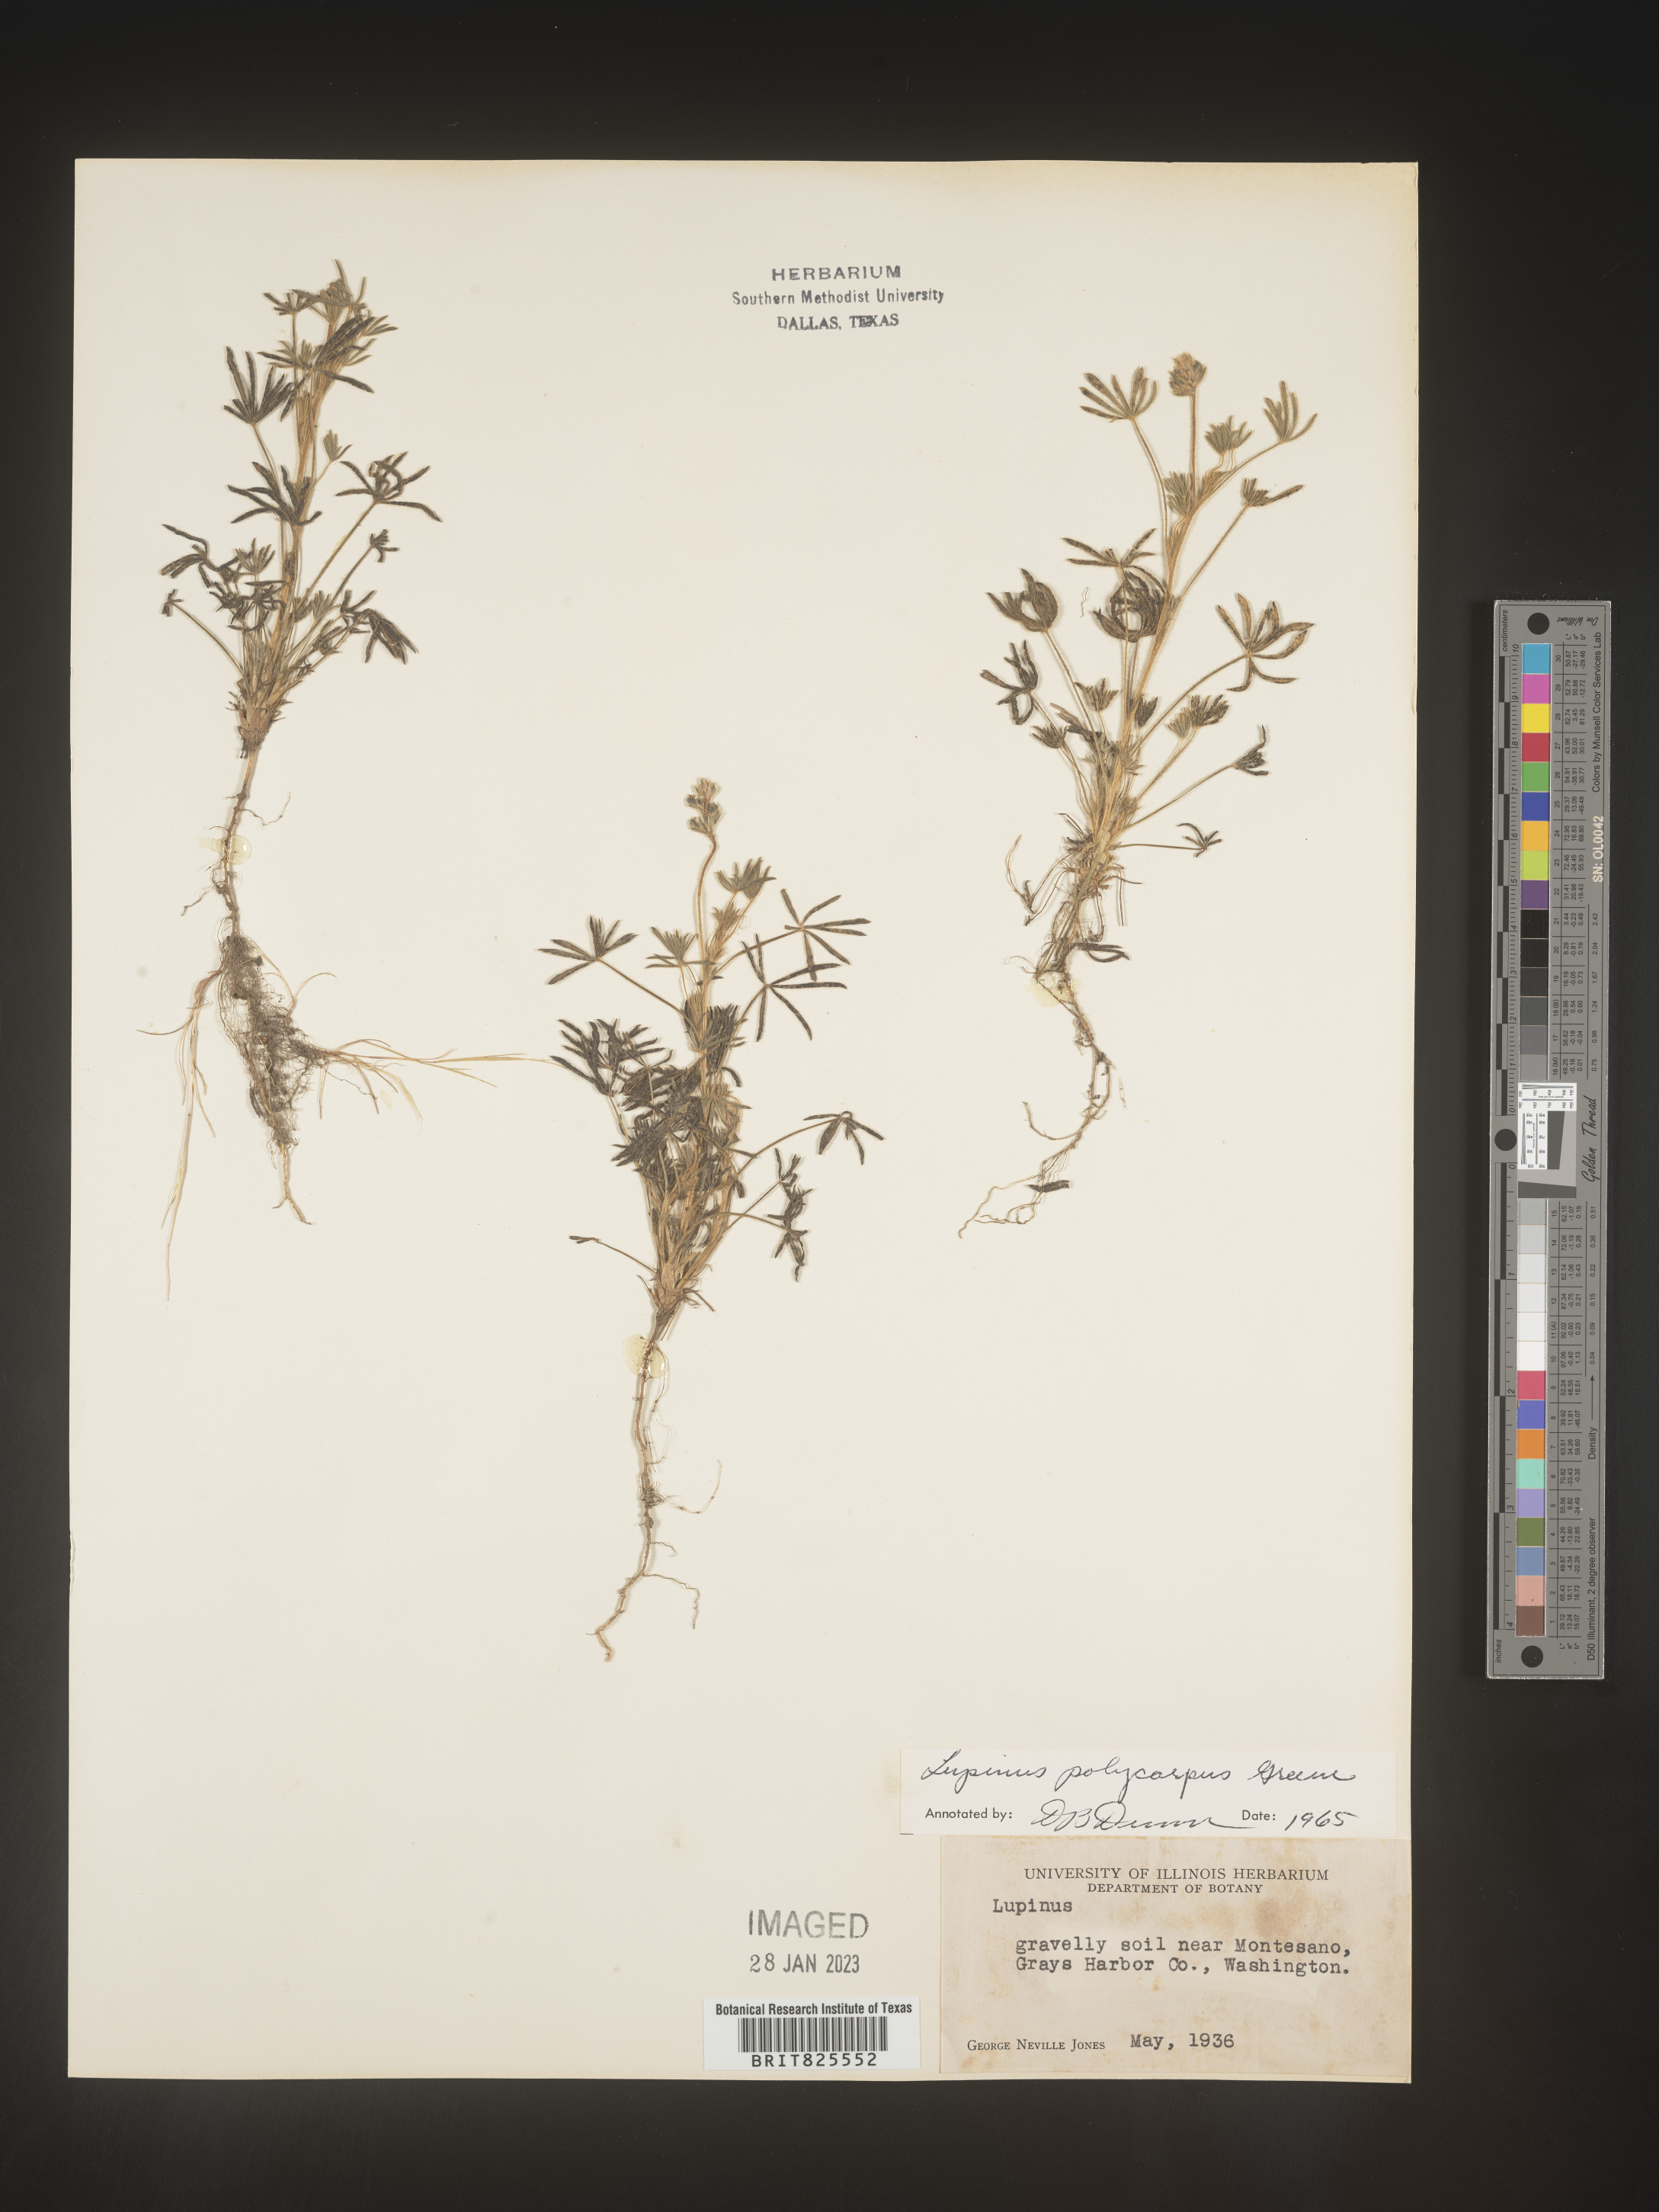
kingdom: Plantae
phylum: Tracheophyta
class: Magnoliopsida
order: Fabales
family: Fabaceae
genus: Lupinus
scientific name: Lupinus
